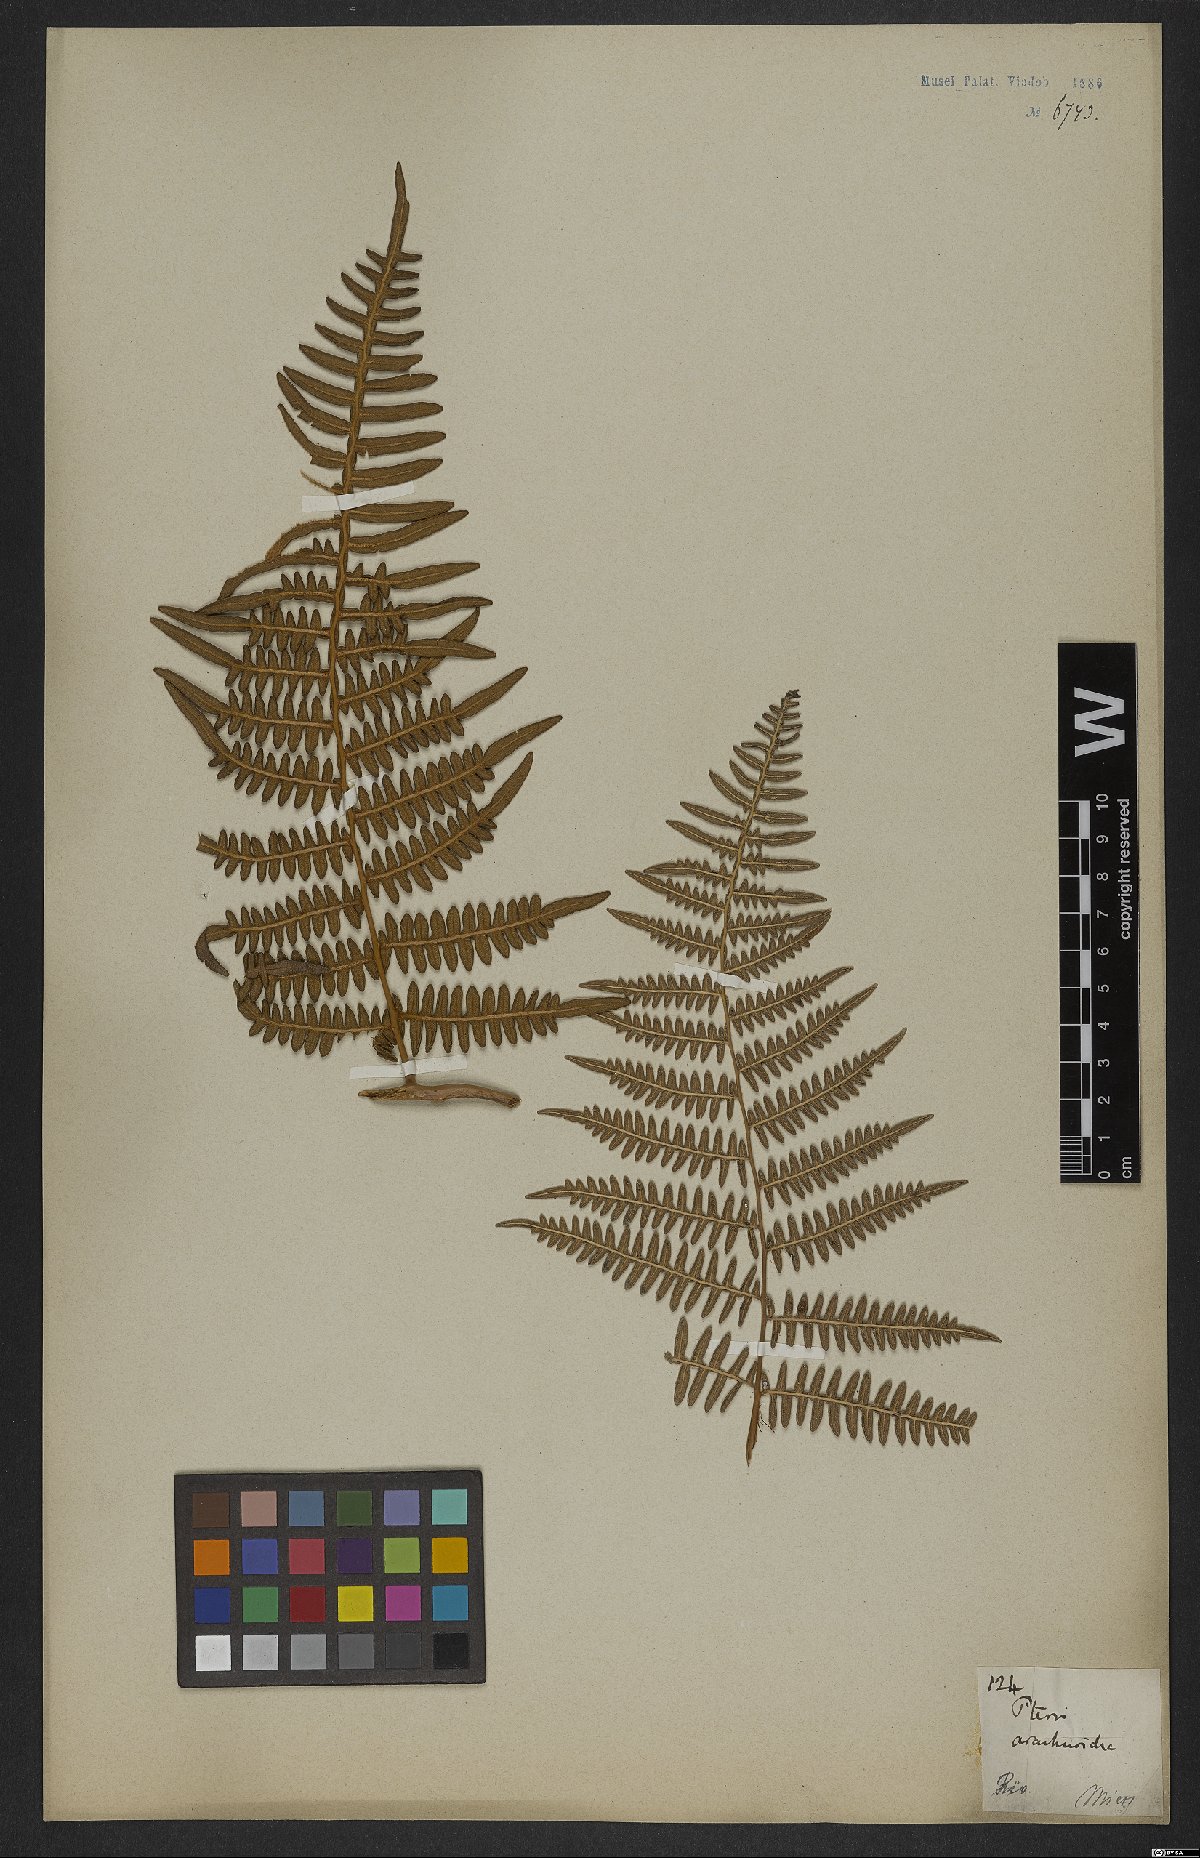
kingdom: Plantae
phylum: Tracheophyta
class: Polypodiopsida
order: Polypodiales
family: Dennstaedtiaceae
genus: Pteridium
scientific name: Pteridium esculentum
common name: Bracken fern
